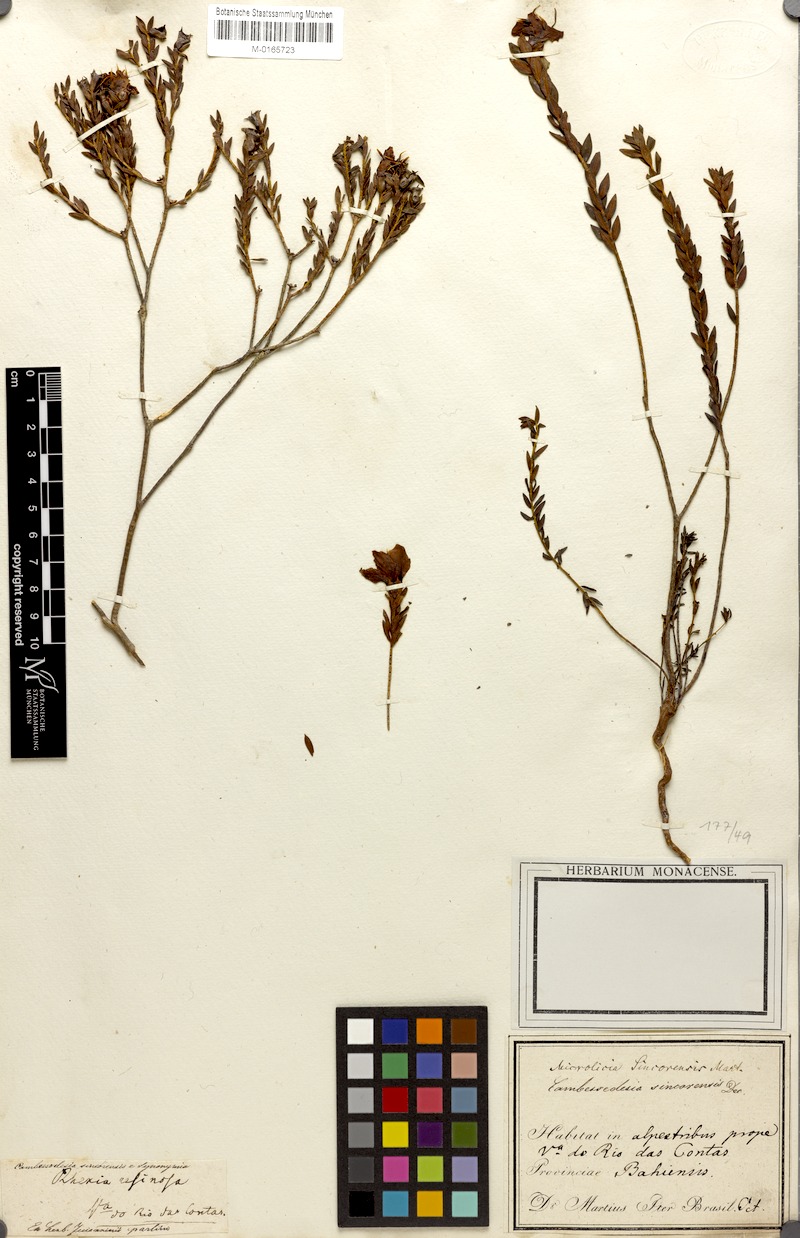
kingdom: Plantae
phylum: Tracheophyta
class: Magnoliopsida
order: Myrtales
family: Melastomataceae
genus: Microlicia
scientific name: Microlicia sincorensis
